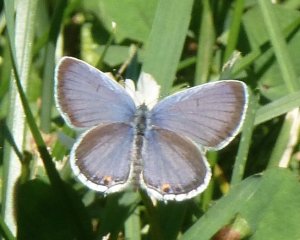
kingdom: Animalia
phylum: Arthropoda
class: Insecta
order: Lepidoptera
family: Lycaenidae
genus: Elkalyce
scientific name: Elkalyce comyntas
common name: Eastern Tailed-Blue
